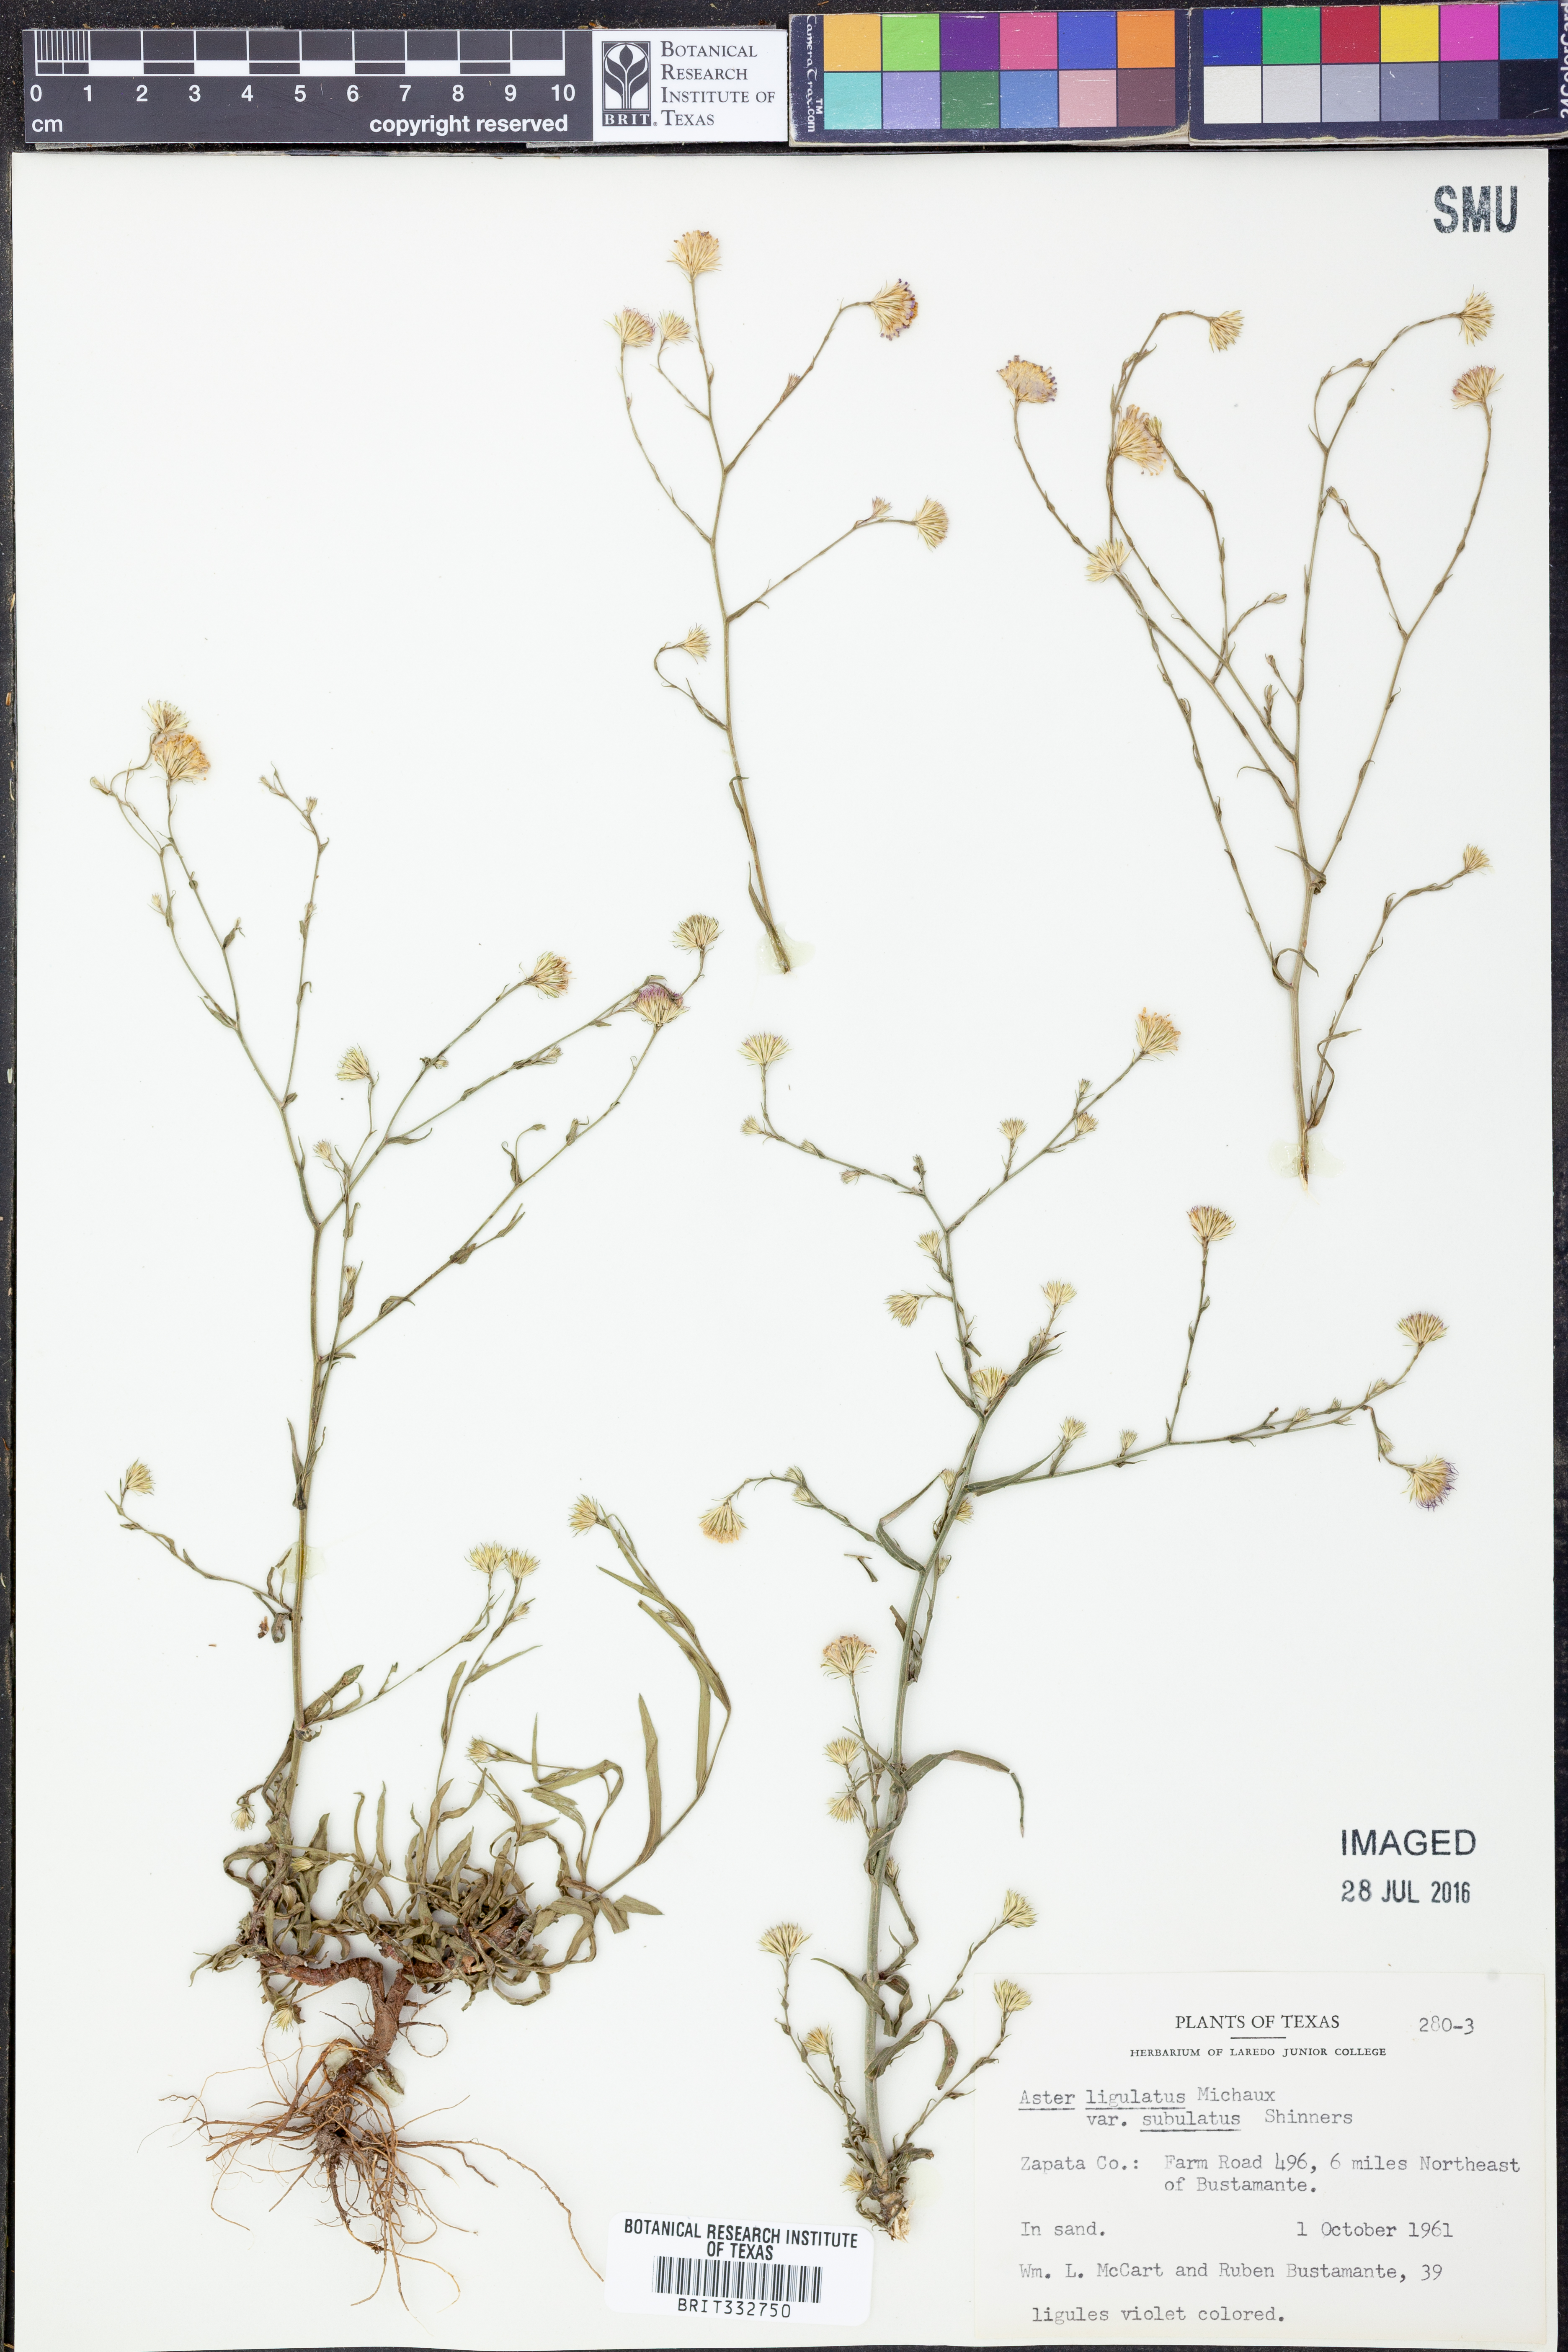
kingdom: Plantae
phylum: Tracheophyta
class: Magnoliopsida
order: Asterales
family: Asteraceae
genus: Symphyotrichum
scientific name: Symphyotrichum divaricatum
